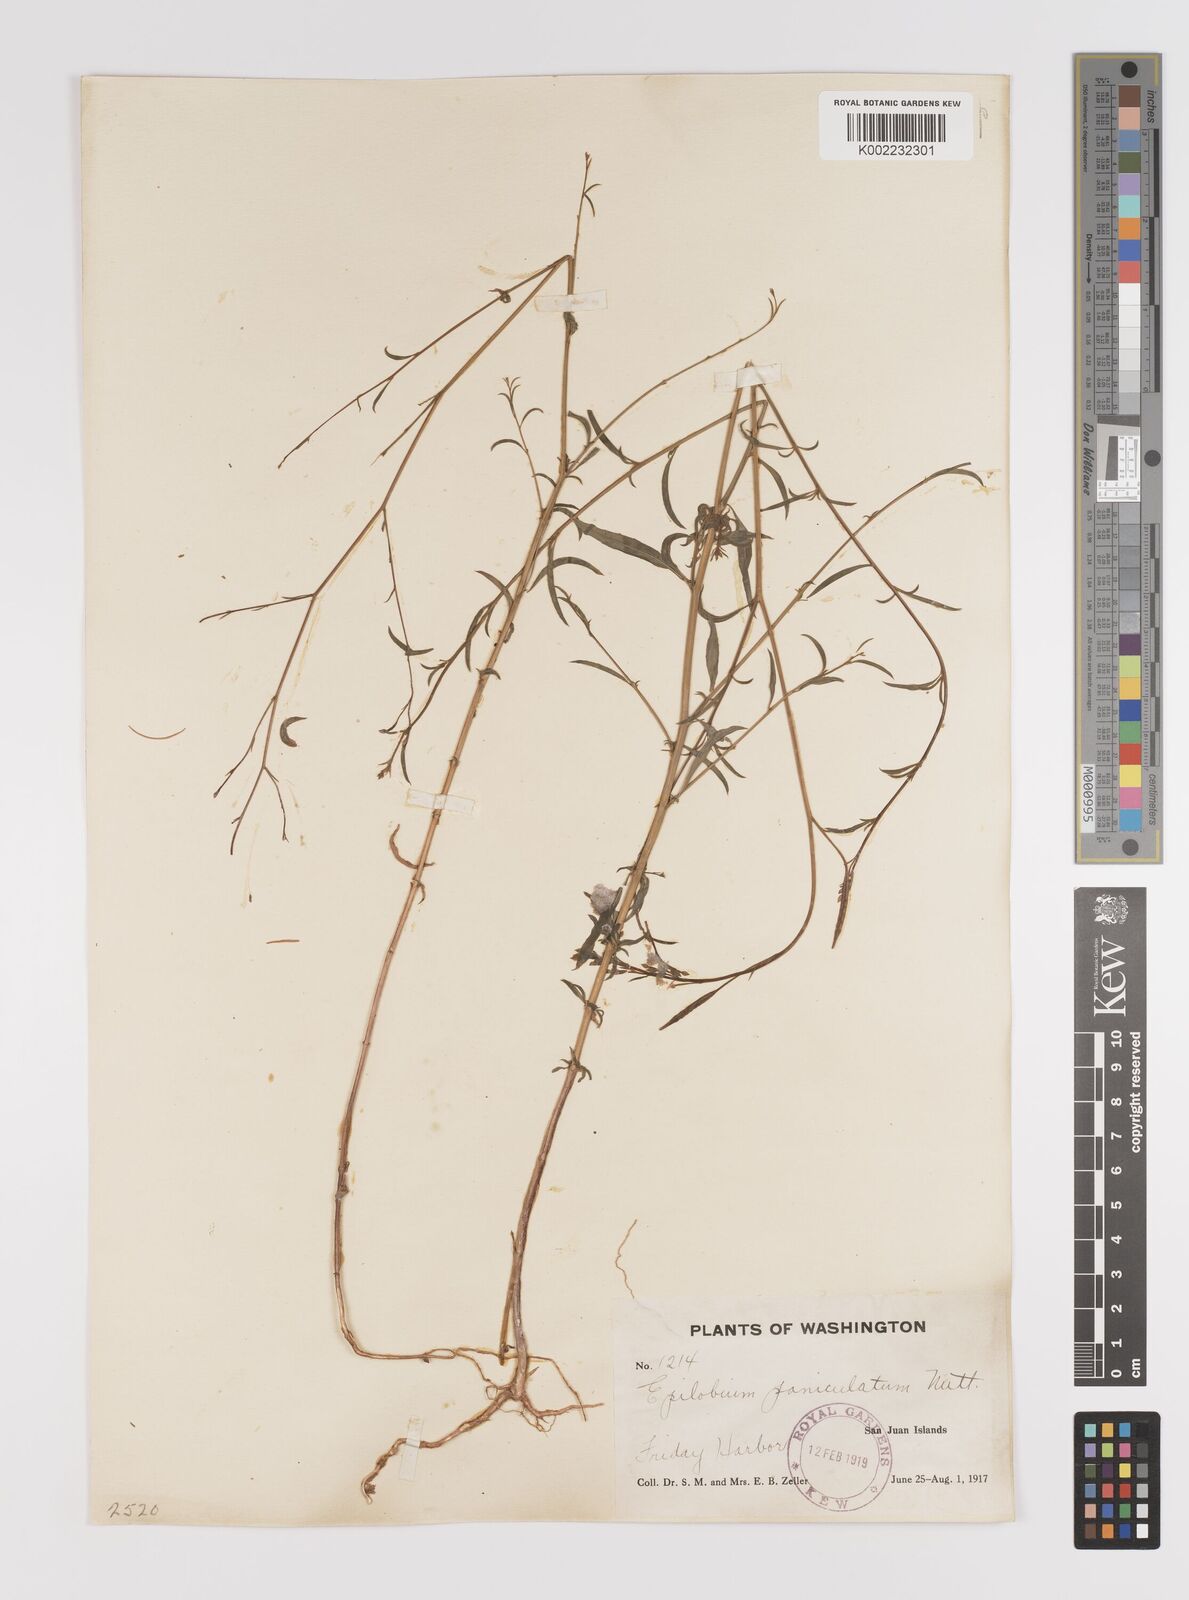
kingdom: Plantae
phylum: Tracheophyta
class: Magnoliopsida
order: Myrtales
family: Onagraceae
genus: Epilobium
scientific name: Epilobium
